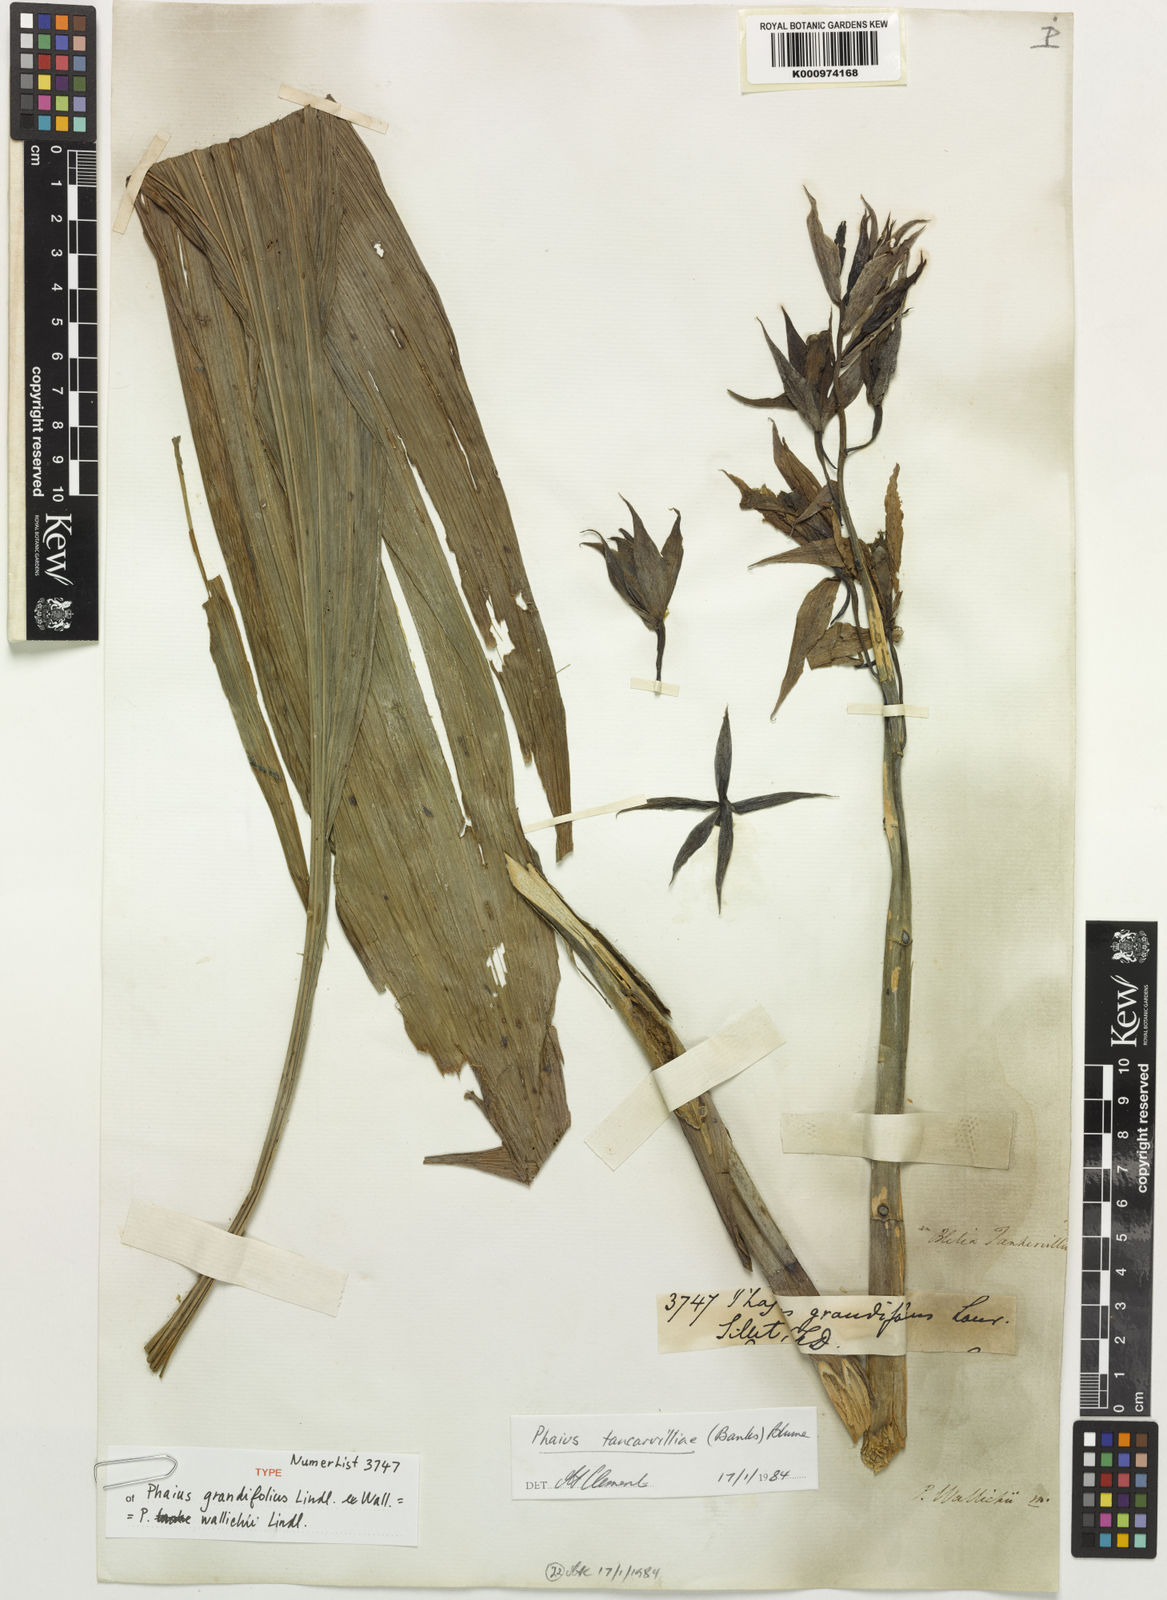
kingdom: Plantae
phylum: Tracheophyta
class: Liliopsida
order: Asparagales
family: Orchidaceae
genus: Calanthe
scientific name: Calanthe wallichii
